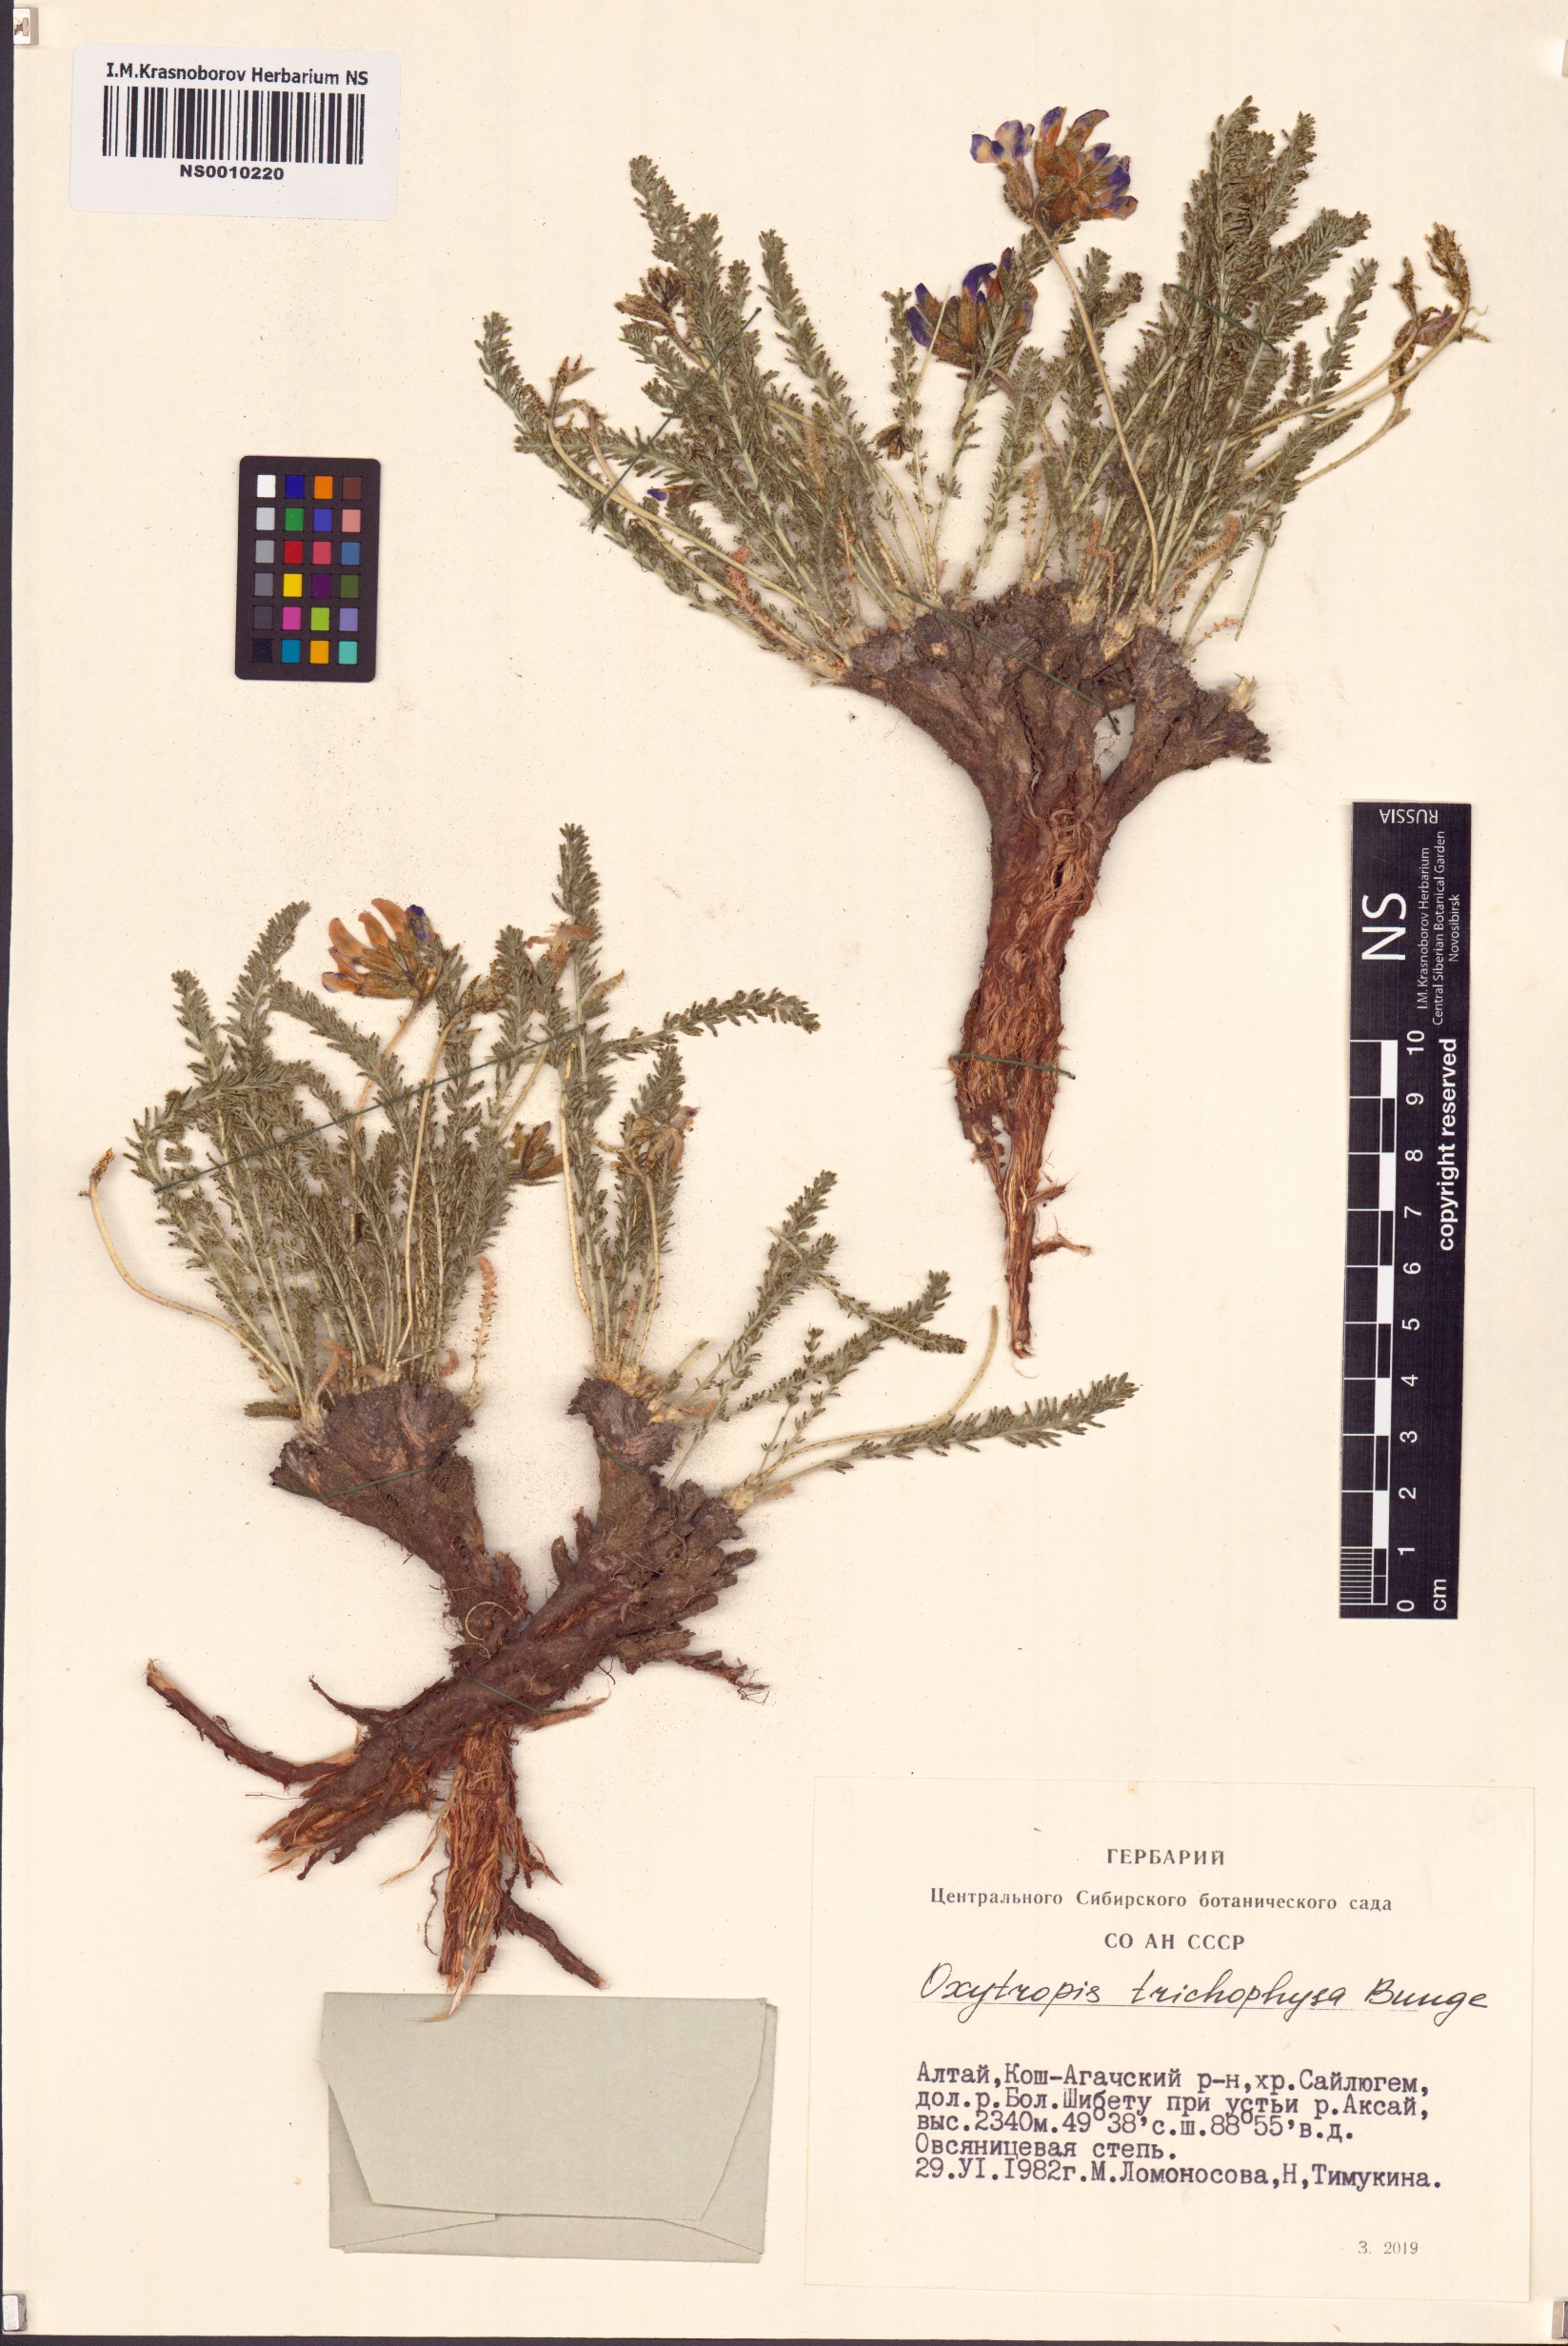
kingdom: Plantae
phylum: Tracheophyta
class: Magnoliopsida
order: Fabales
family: Fabaceae
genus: Oxytropis
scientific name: Oxytropis trichophysa
